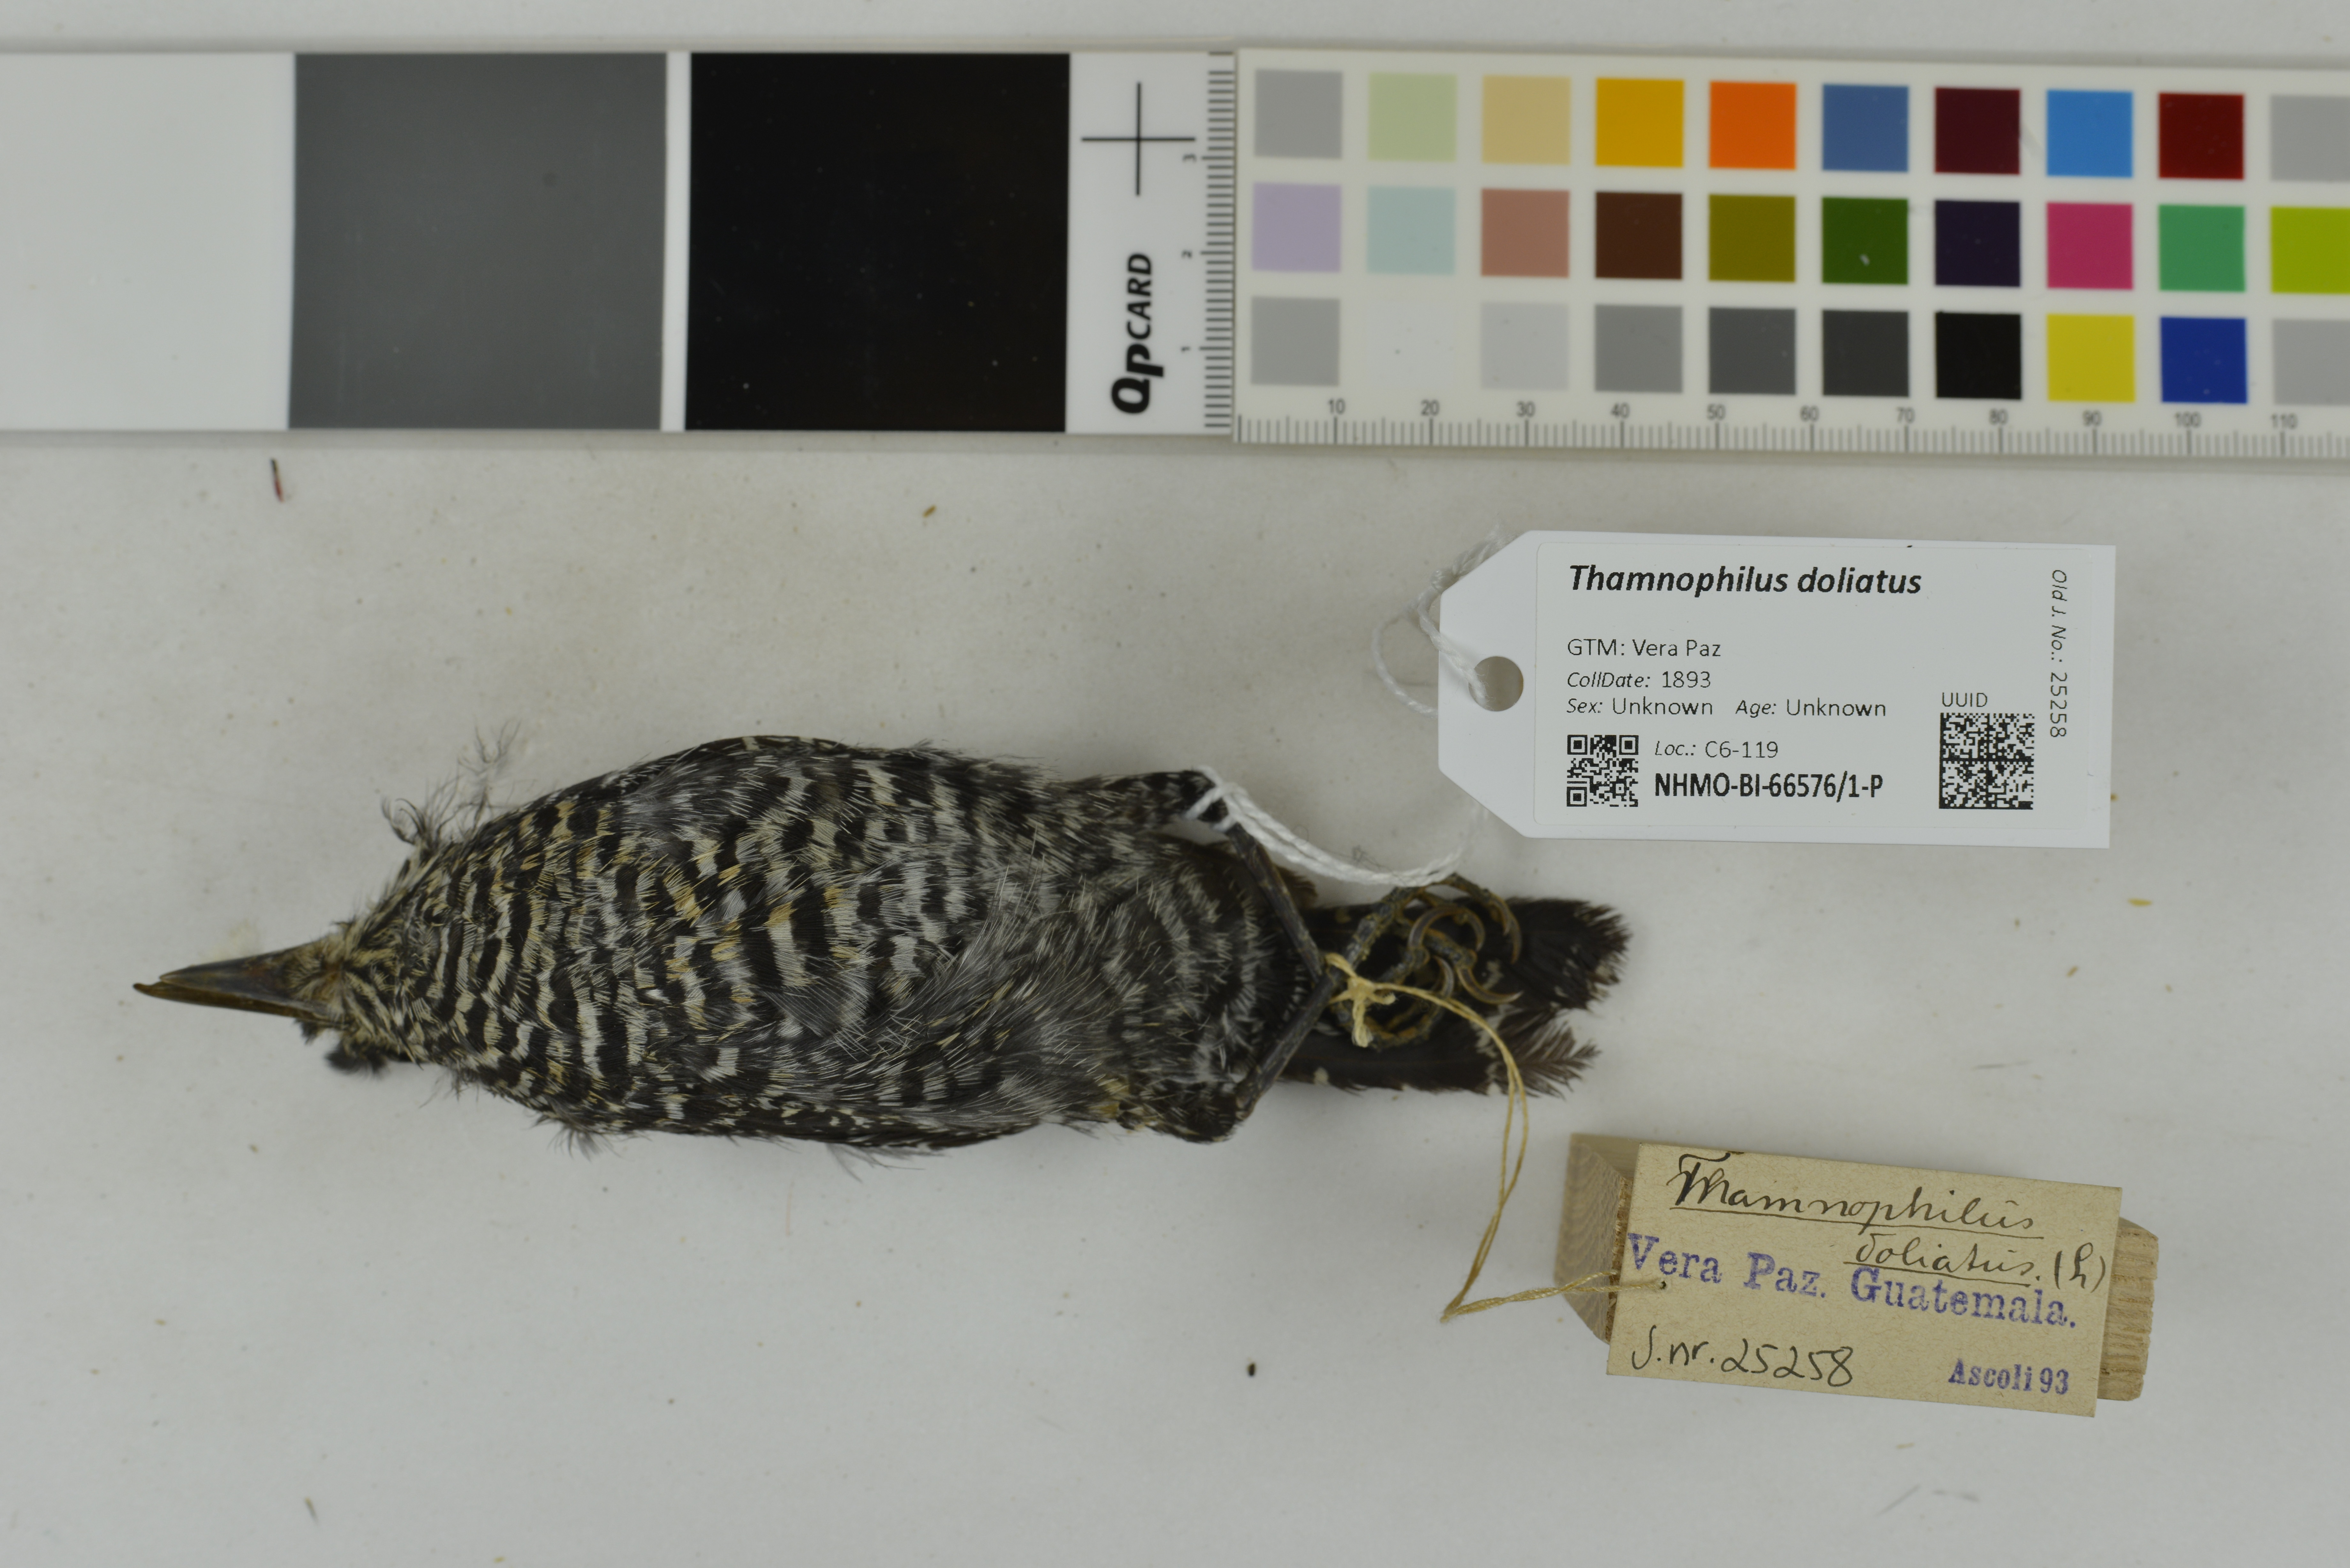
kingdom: Animalia
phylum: Chordata
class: Aves
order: Passeriformes
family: Thamnophilidae
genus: Thamnophilus
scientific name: Thamnophilus doliatus
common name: Barred antshrike
